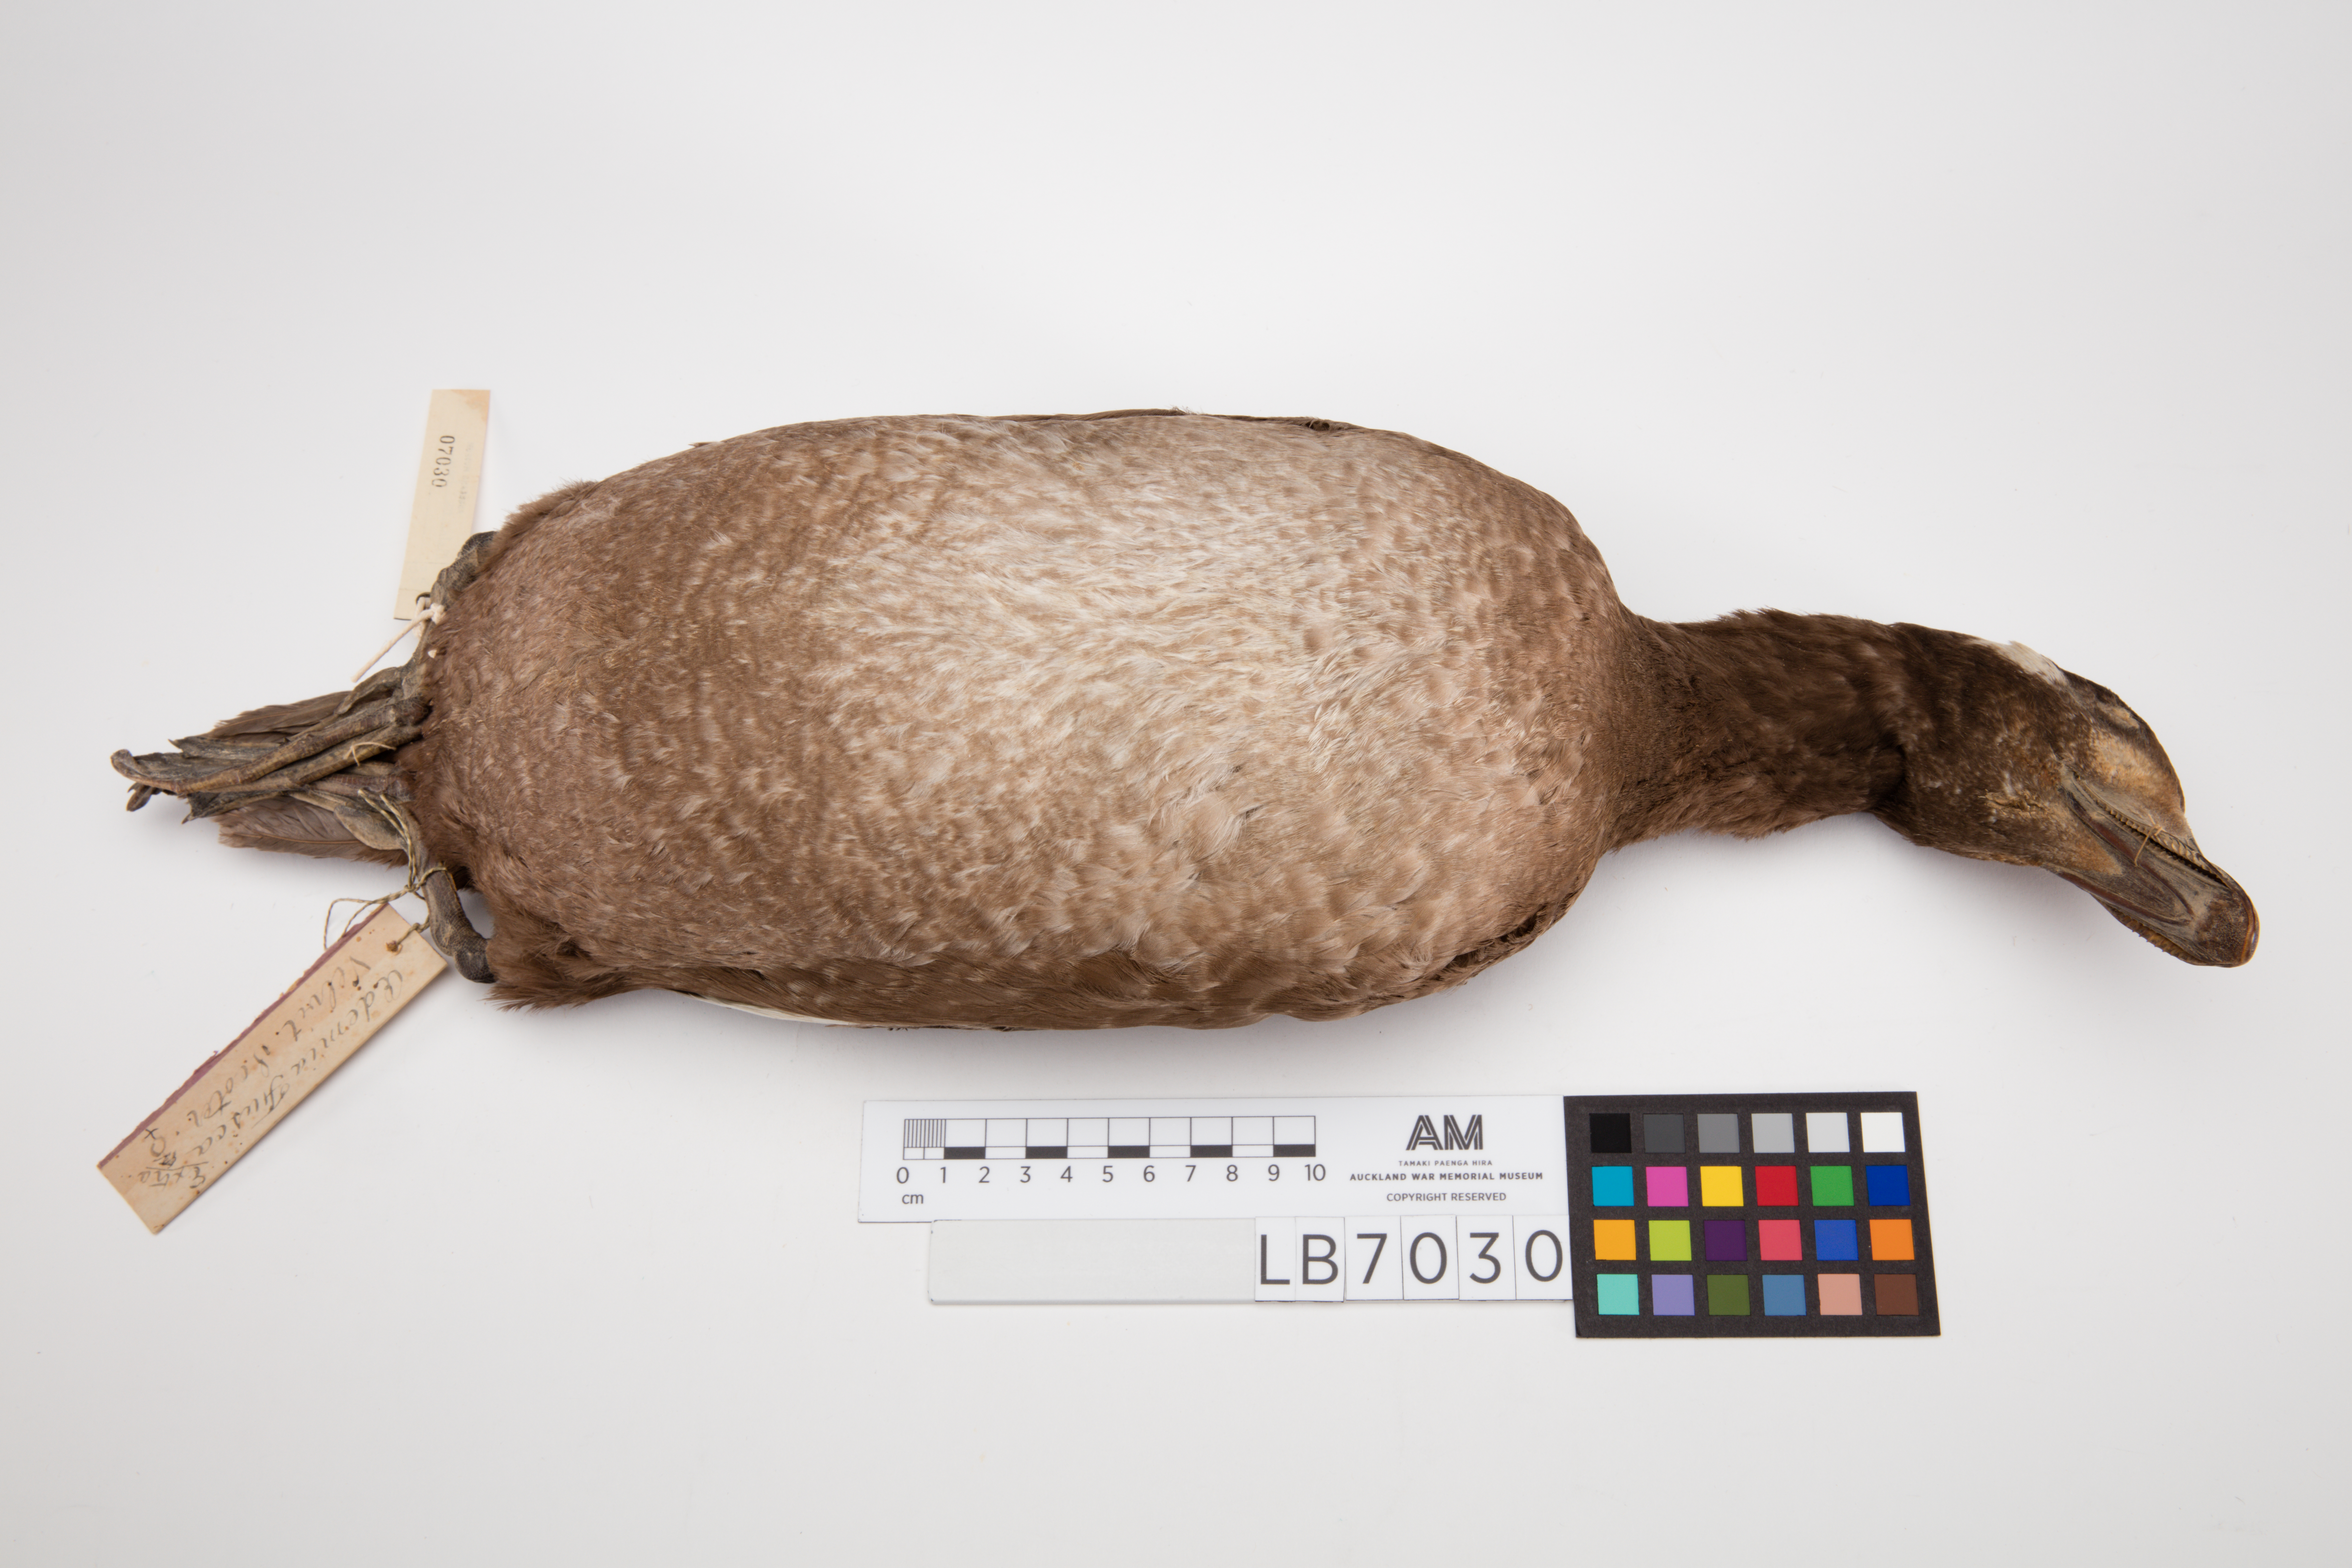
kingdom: Animalia
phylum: Chordata
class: Aves
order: Anseriformes
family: Anatidae
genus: Melanitta
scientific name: Melanitta fusca
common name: Velvet scoter
